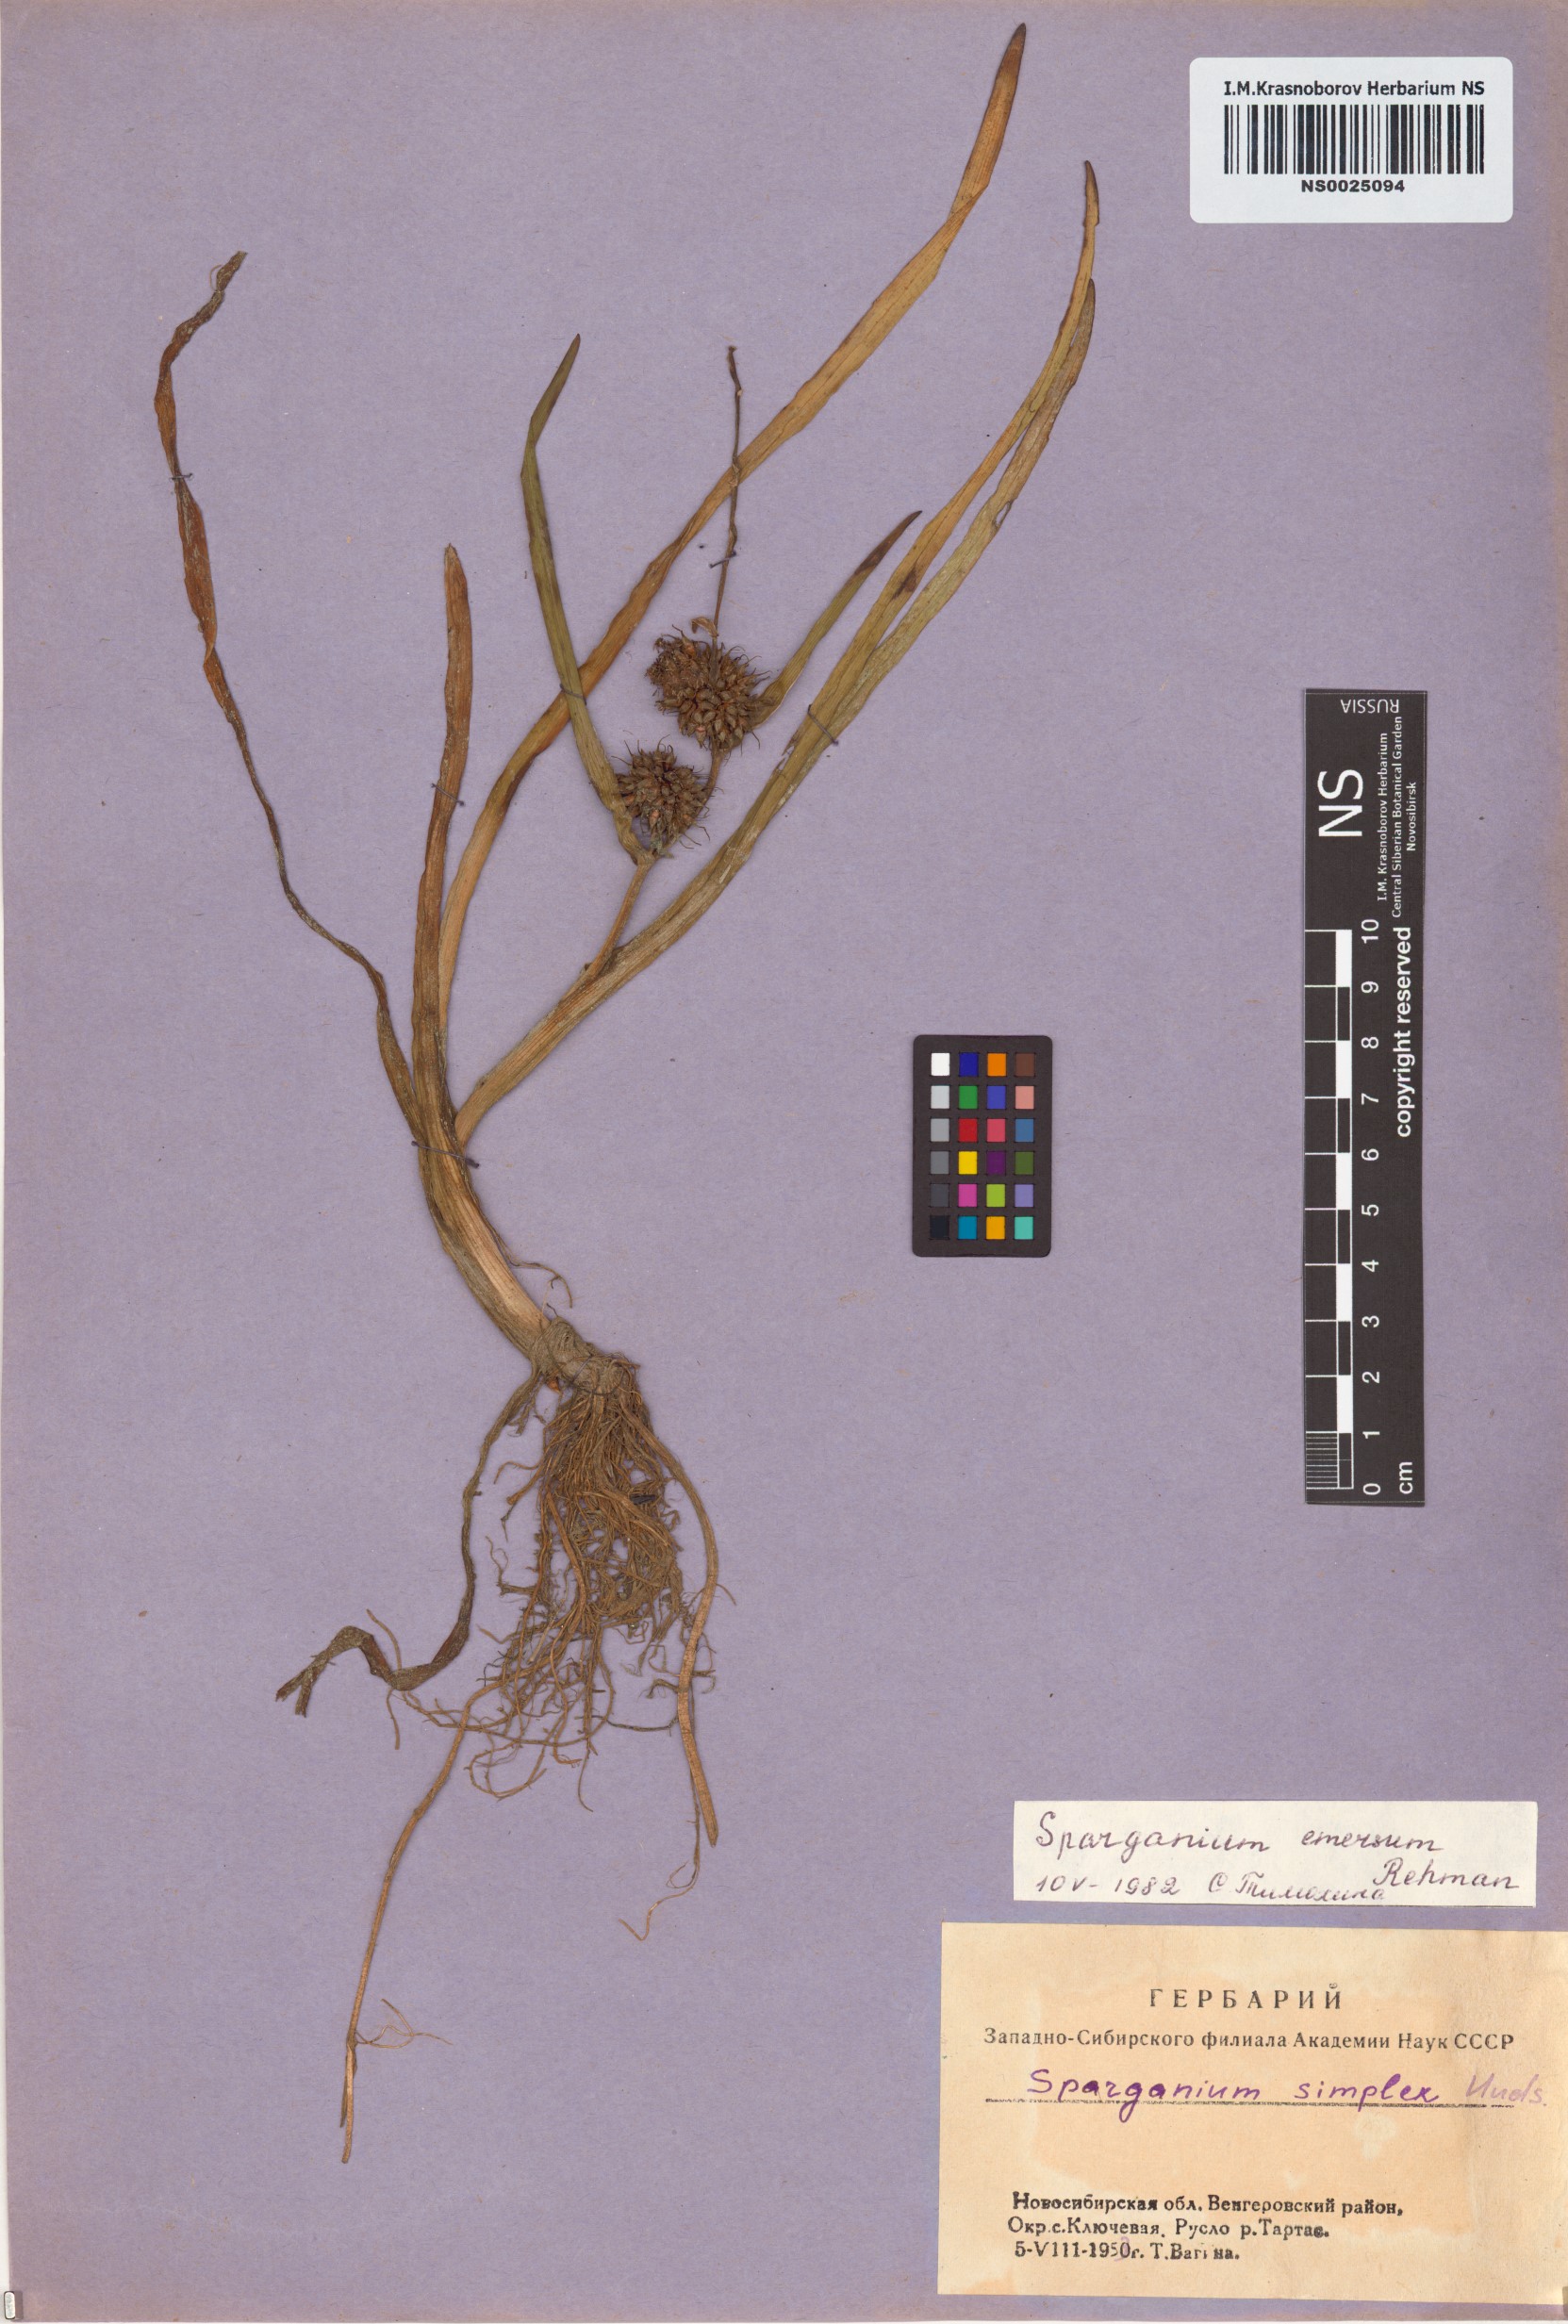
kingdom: Plantae
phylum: Tracheophyta
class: Liliopsida
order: Poales
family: Typhaceae
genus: Sparganium
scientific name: Sparganium emersum
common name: Unbranched bur-reed
